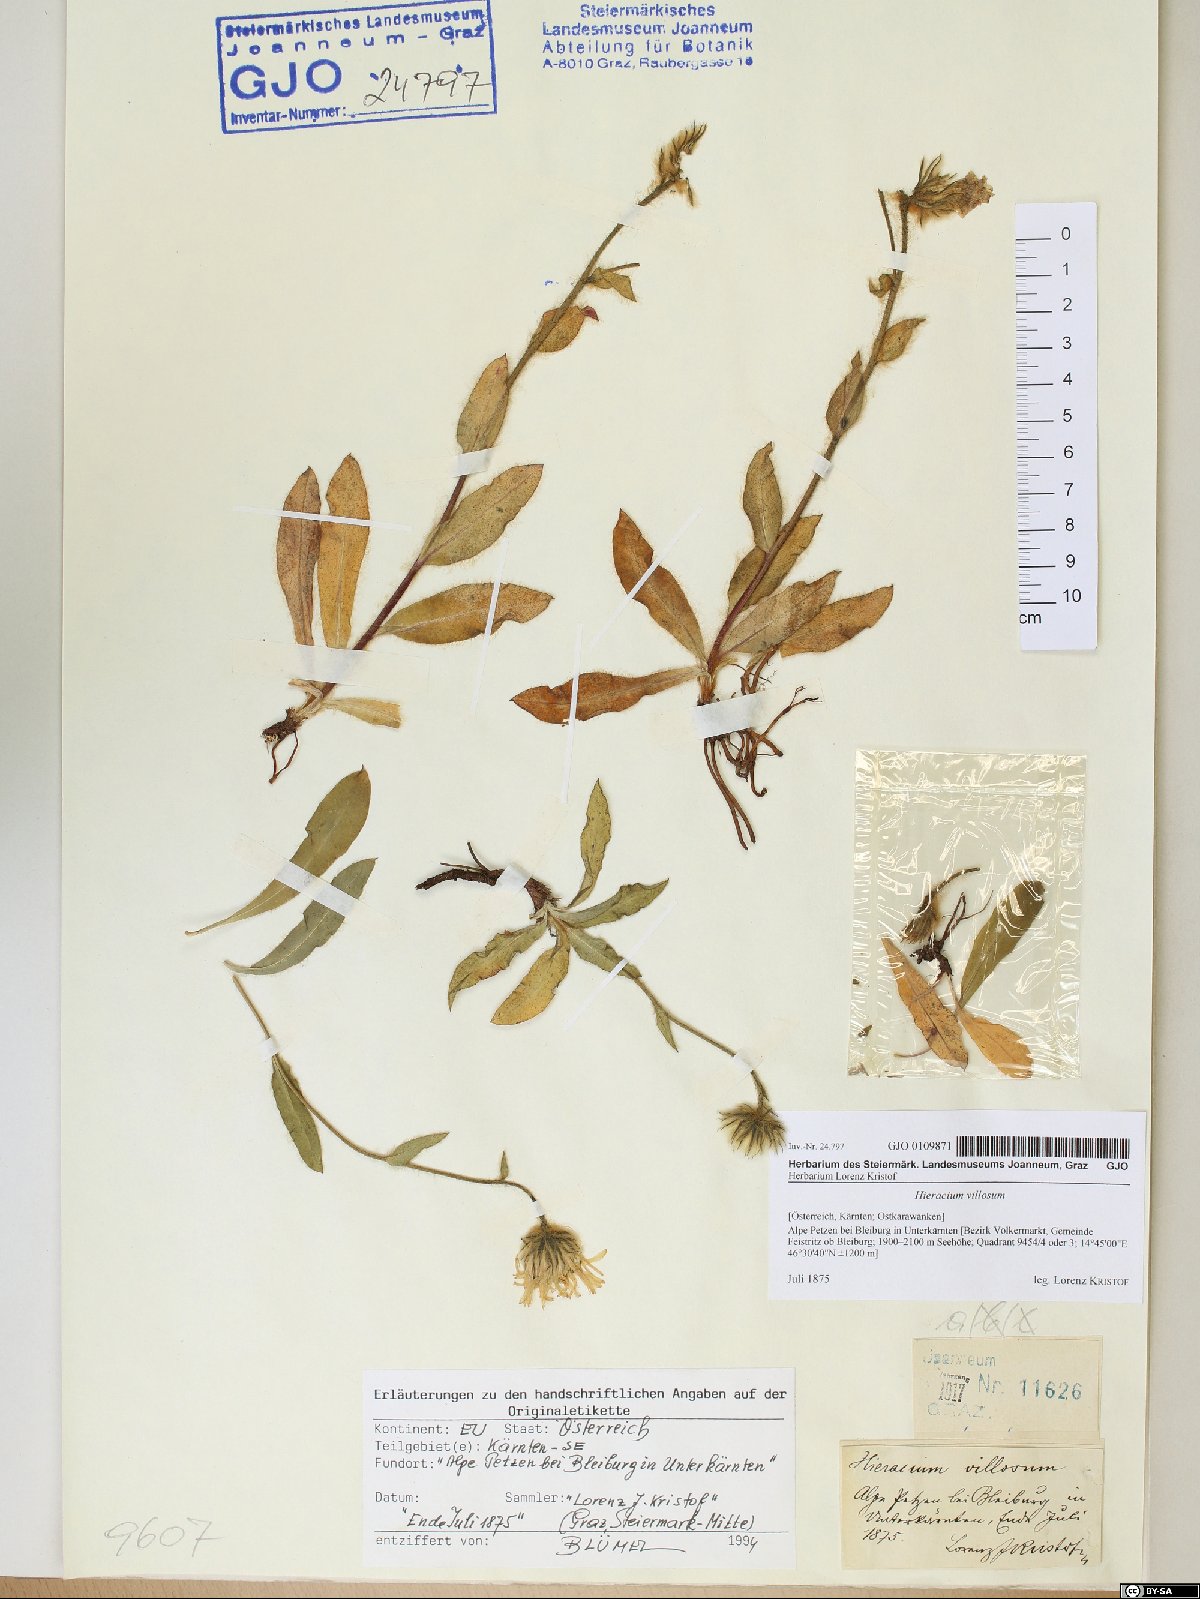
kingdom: Plantae
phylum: Tracheophyta
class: Magnoliopsida
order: Asterales
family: Asteraceae
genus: Hieracium
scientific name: Hieracium villosum
